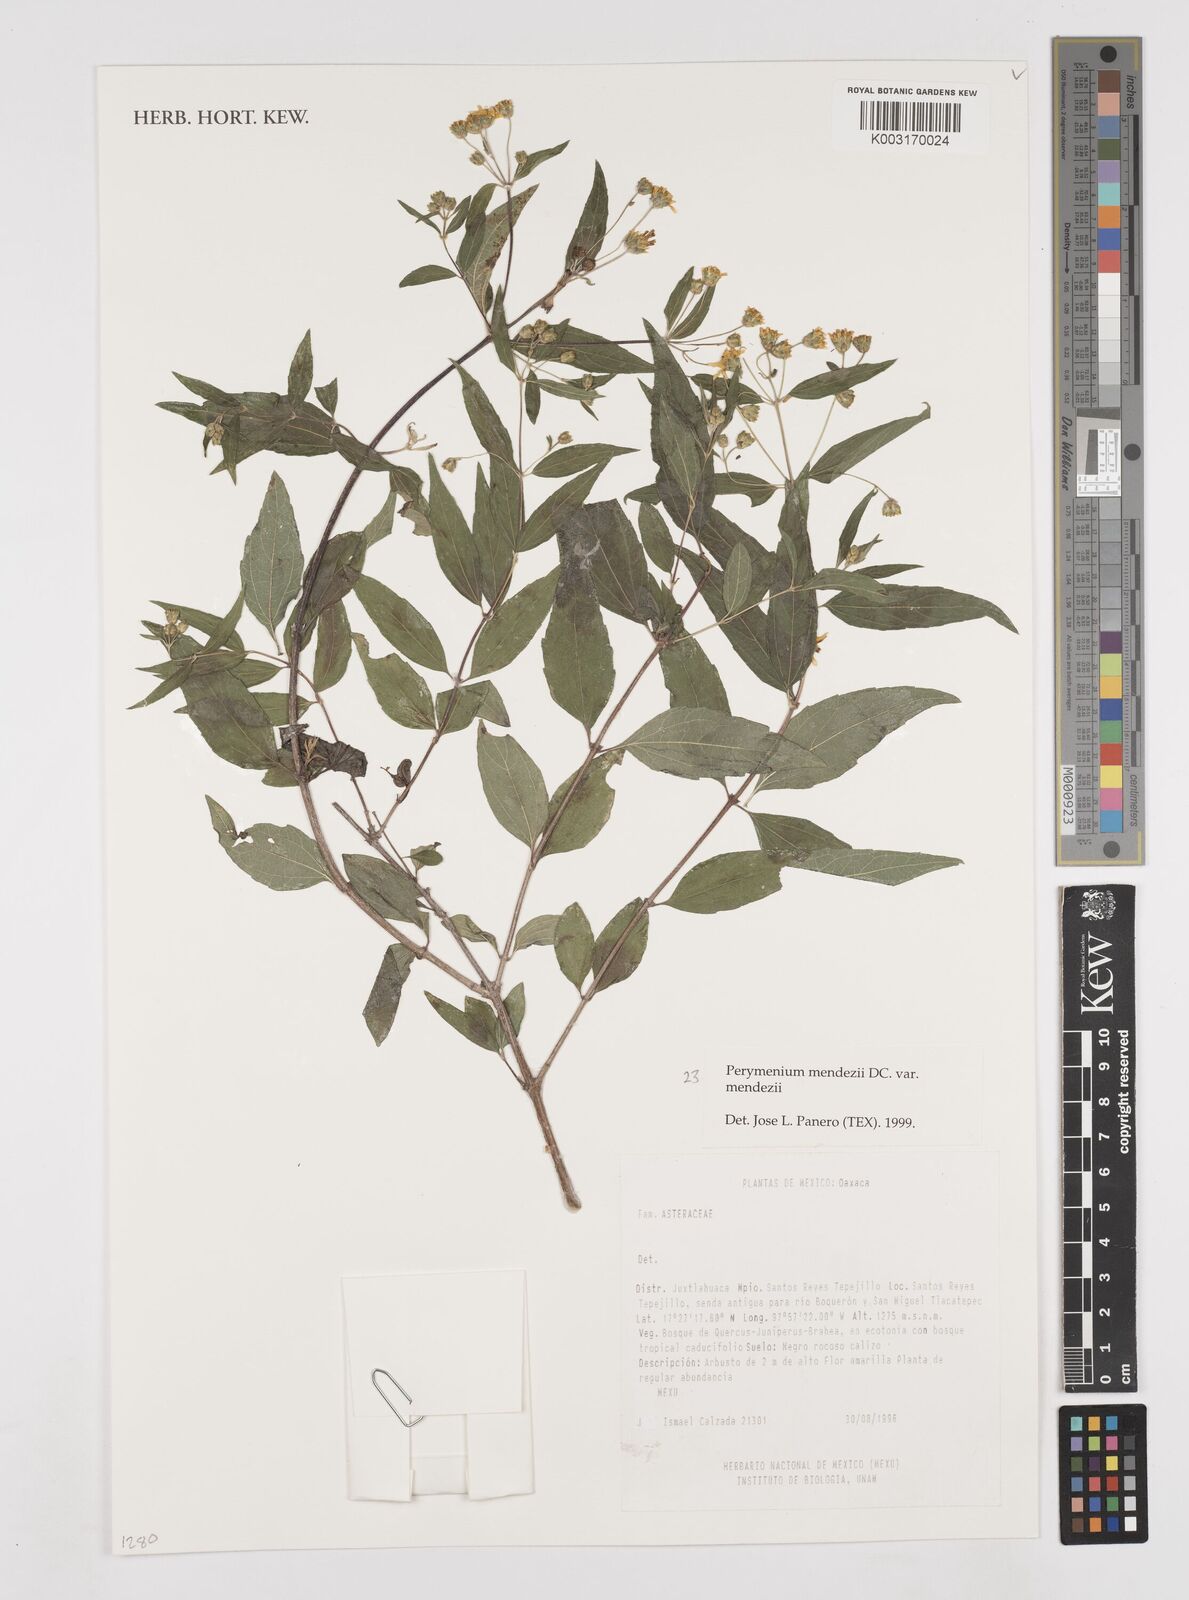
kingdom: Plantae
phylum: Tracheophyta
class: Magnoliopsida
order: Asterales
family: Asteraceae
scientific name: Asteraceae
